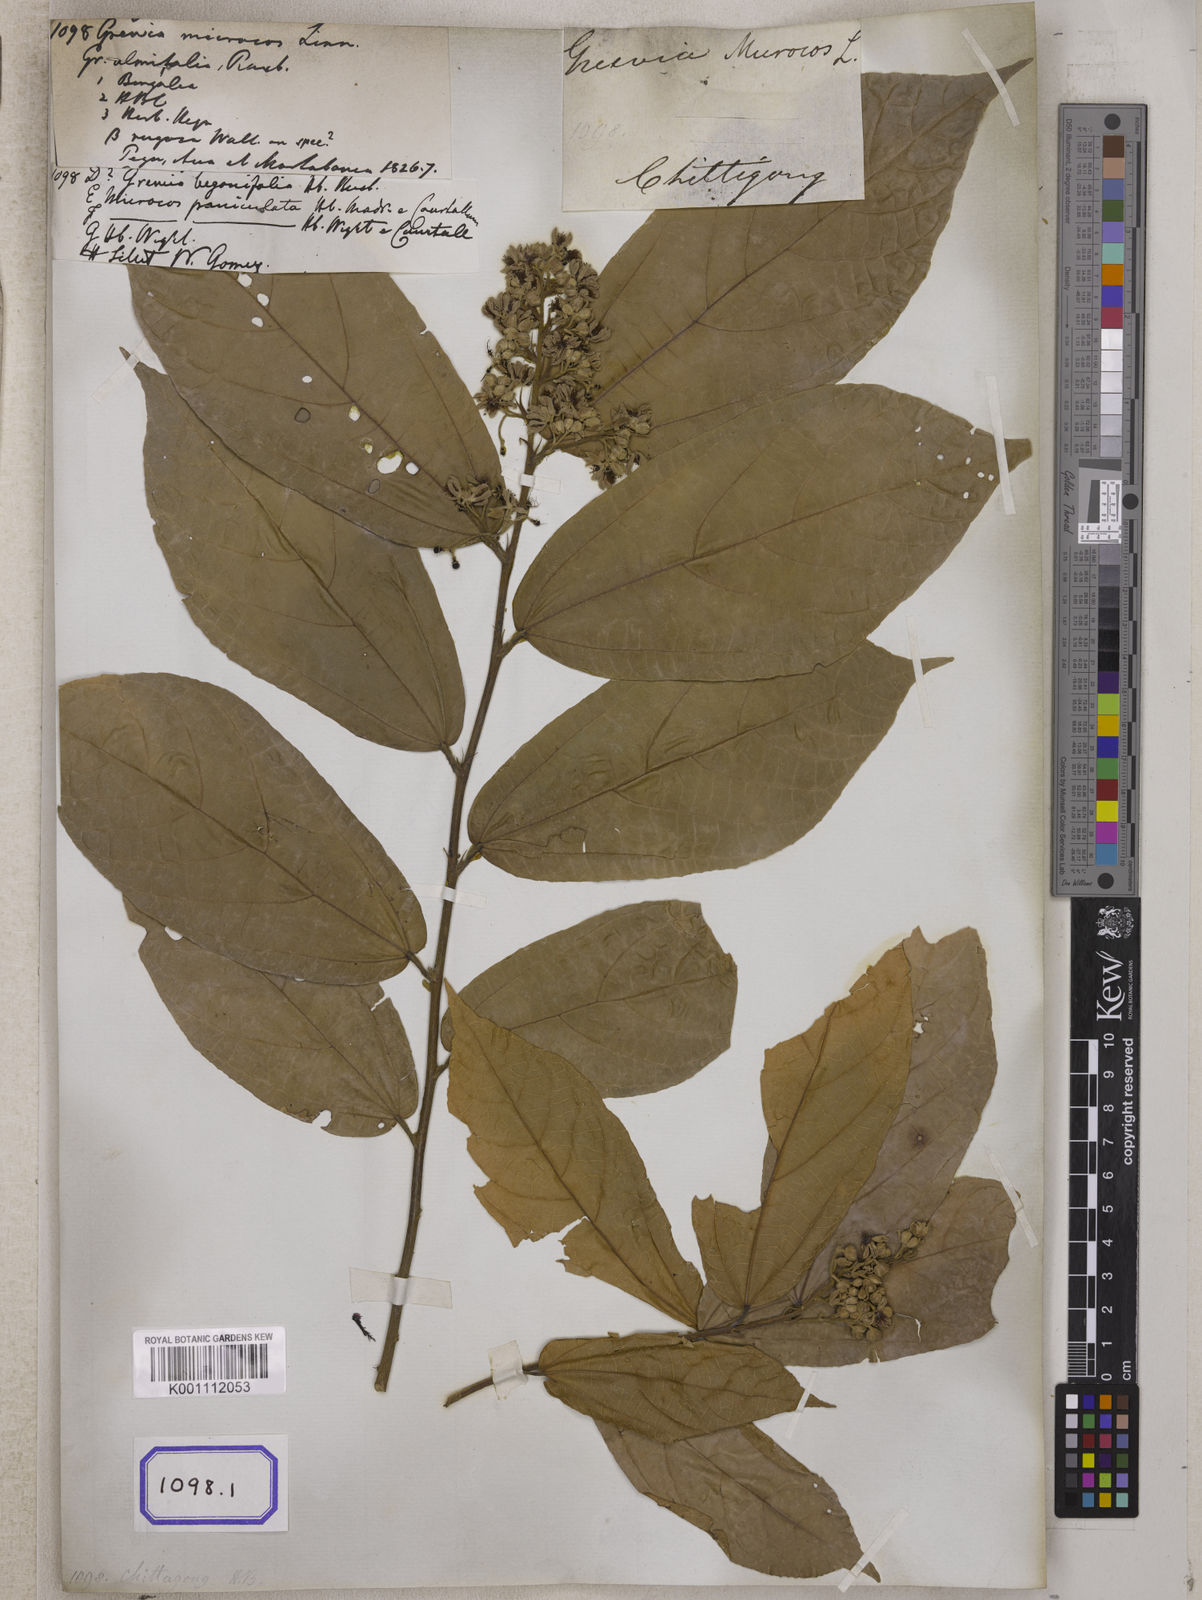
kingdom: Plantae
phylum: Tracheophyta
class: Magnoliopsida
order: Malvales
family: Malvaceae
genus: Microcos
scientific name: Microcos paniculata
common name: Microcos
